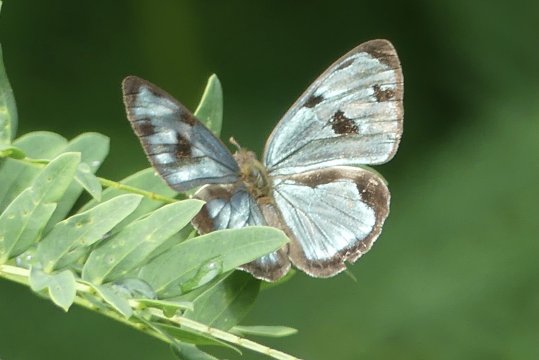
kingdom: Animalia
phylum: Arthropoda
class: Insecta
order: Lepidoptera
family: Nymphalidae
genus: Dynamine
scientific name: Dynamine mylitta
